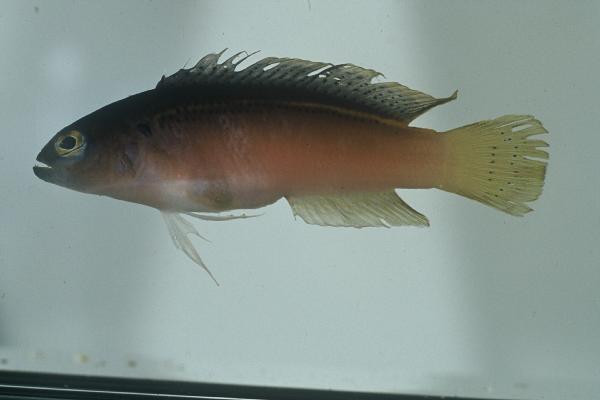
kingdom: Animalia
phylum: Chordata
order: Perciformes
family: Pseudochromidae
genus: Pseudochromis
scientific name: Pseudochromis melas
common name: Dark dottyback
